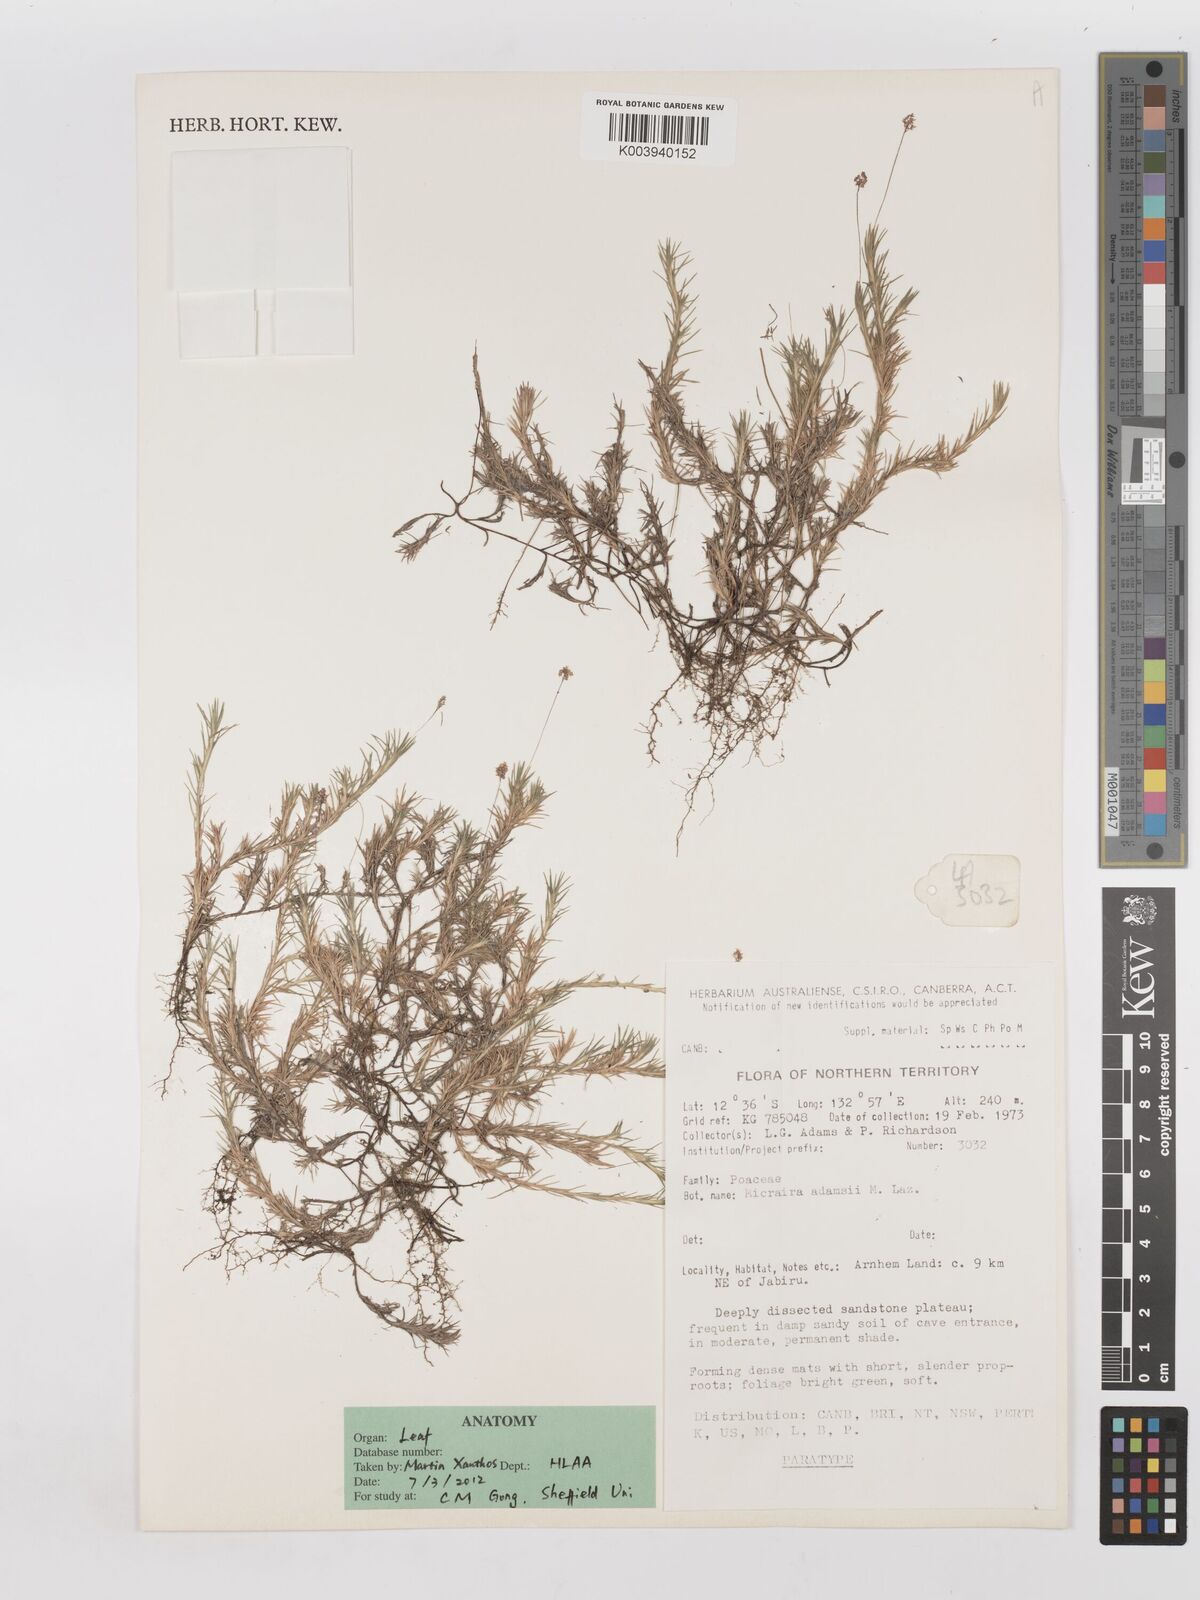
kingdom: Plantae
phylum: Tracheophyta
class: Liliopsida
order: Poales
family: Poaceae
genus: Micraira
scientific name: Micraira adamsii
